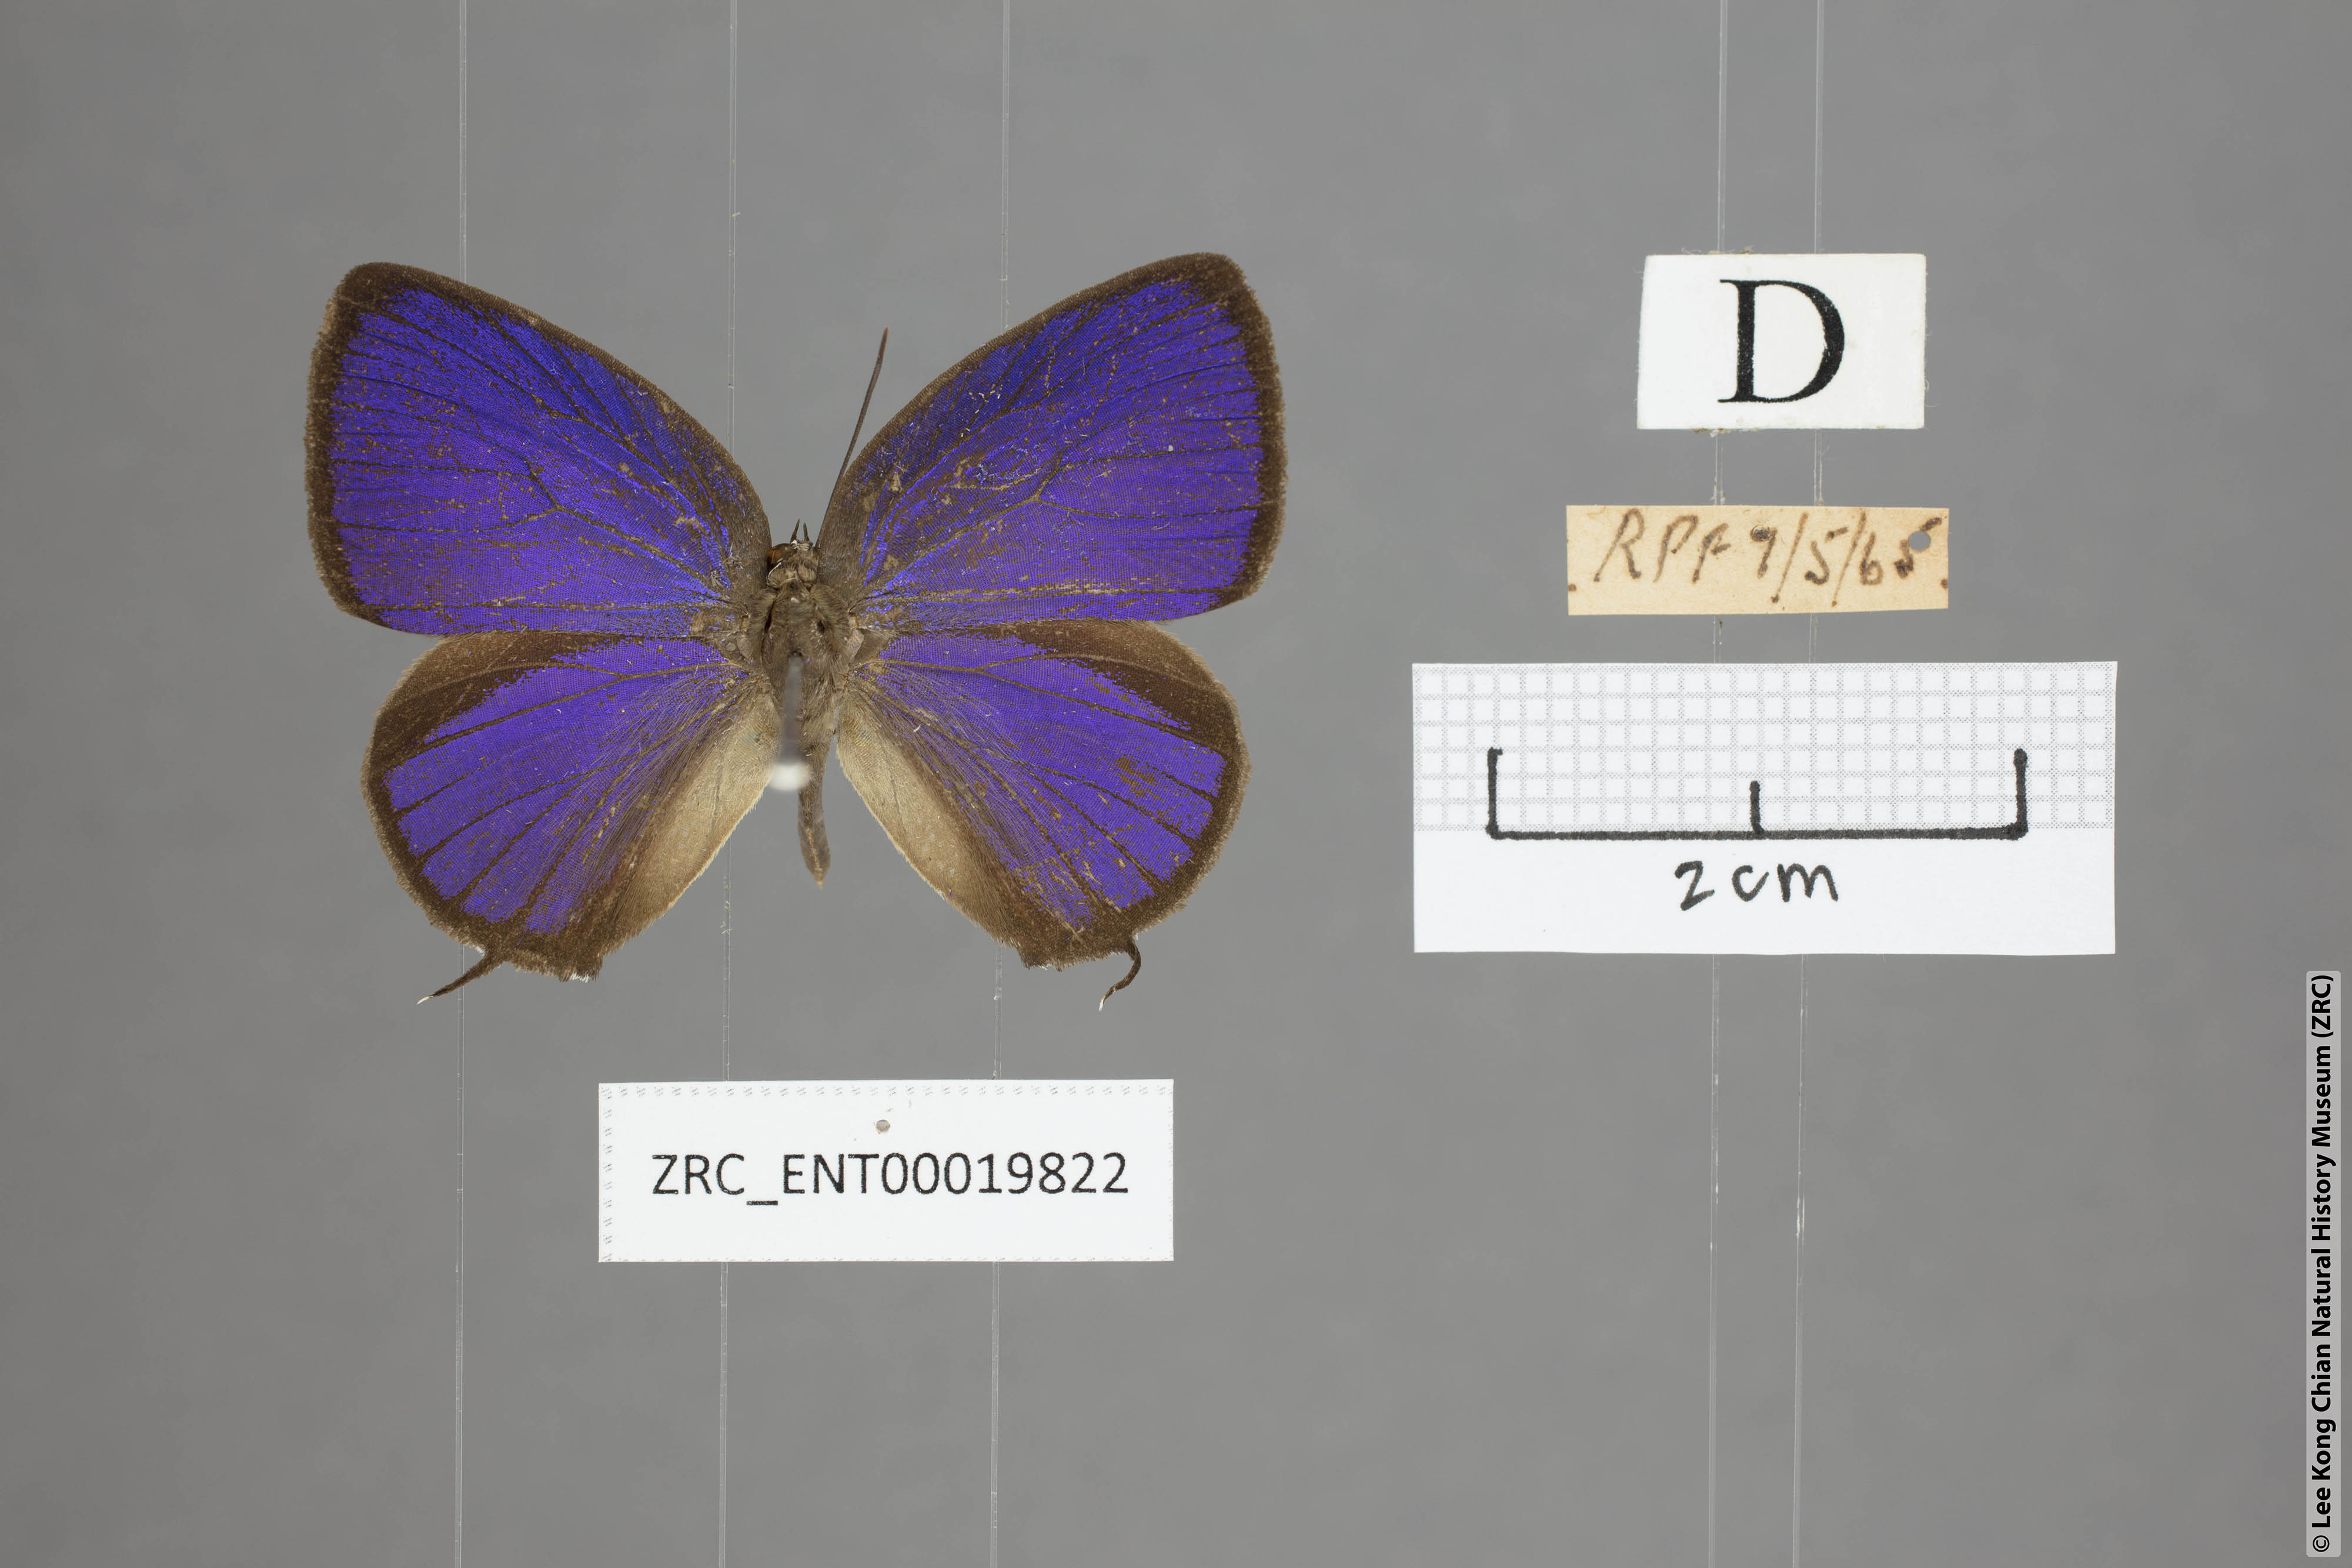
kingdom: Animalia
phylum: Arthropoda
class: Insecta
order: Lepidoptera
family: Lycaenidae
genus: Arhopala
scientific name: Arhopala pseudomuta
